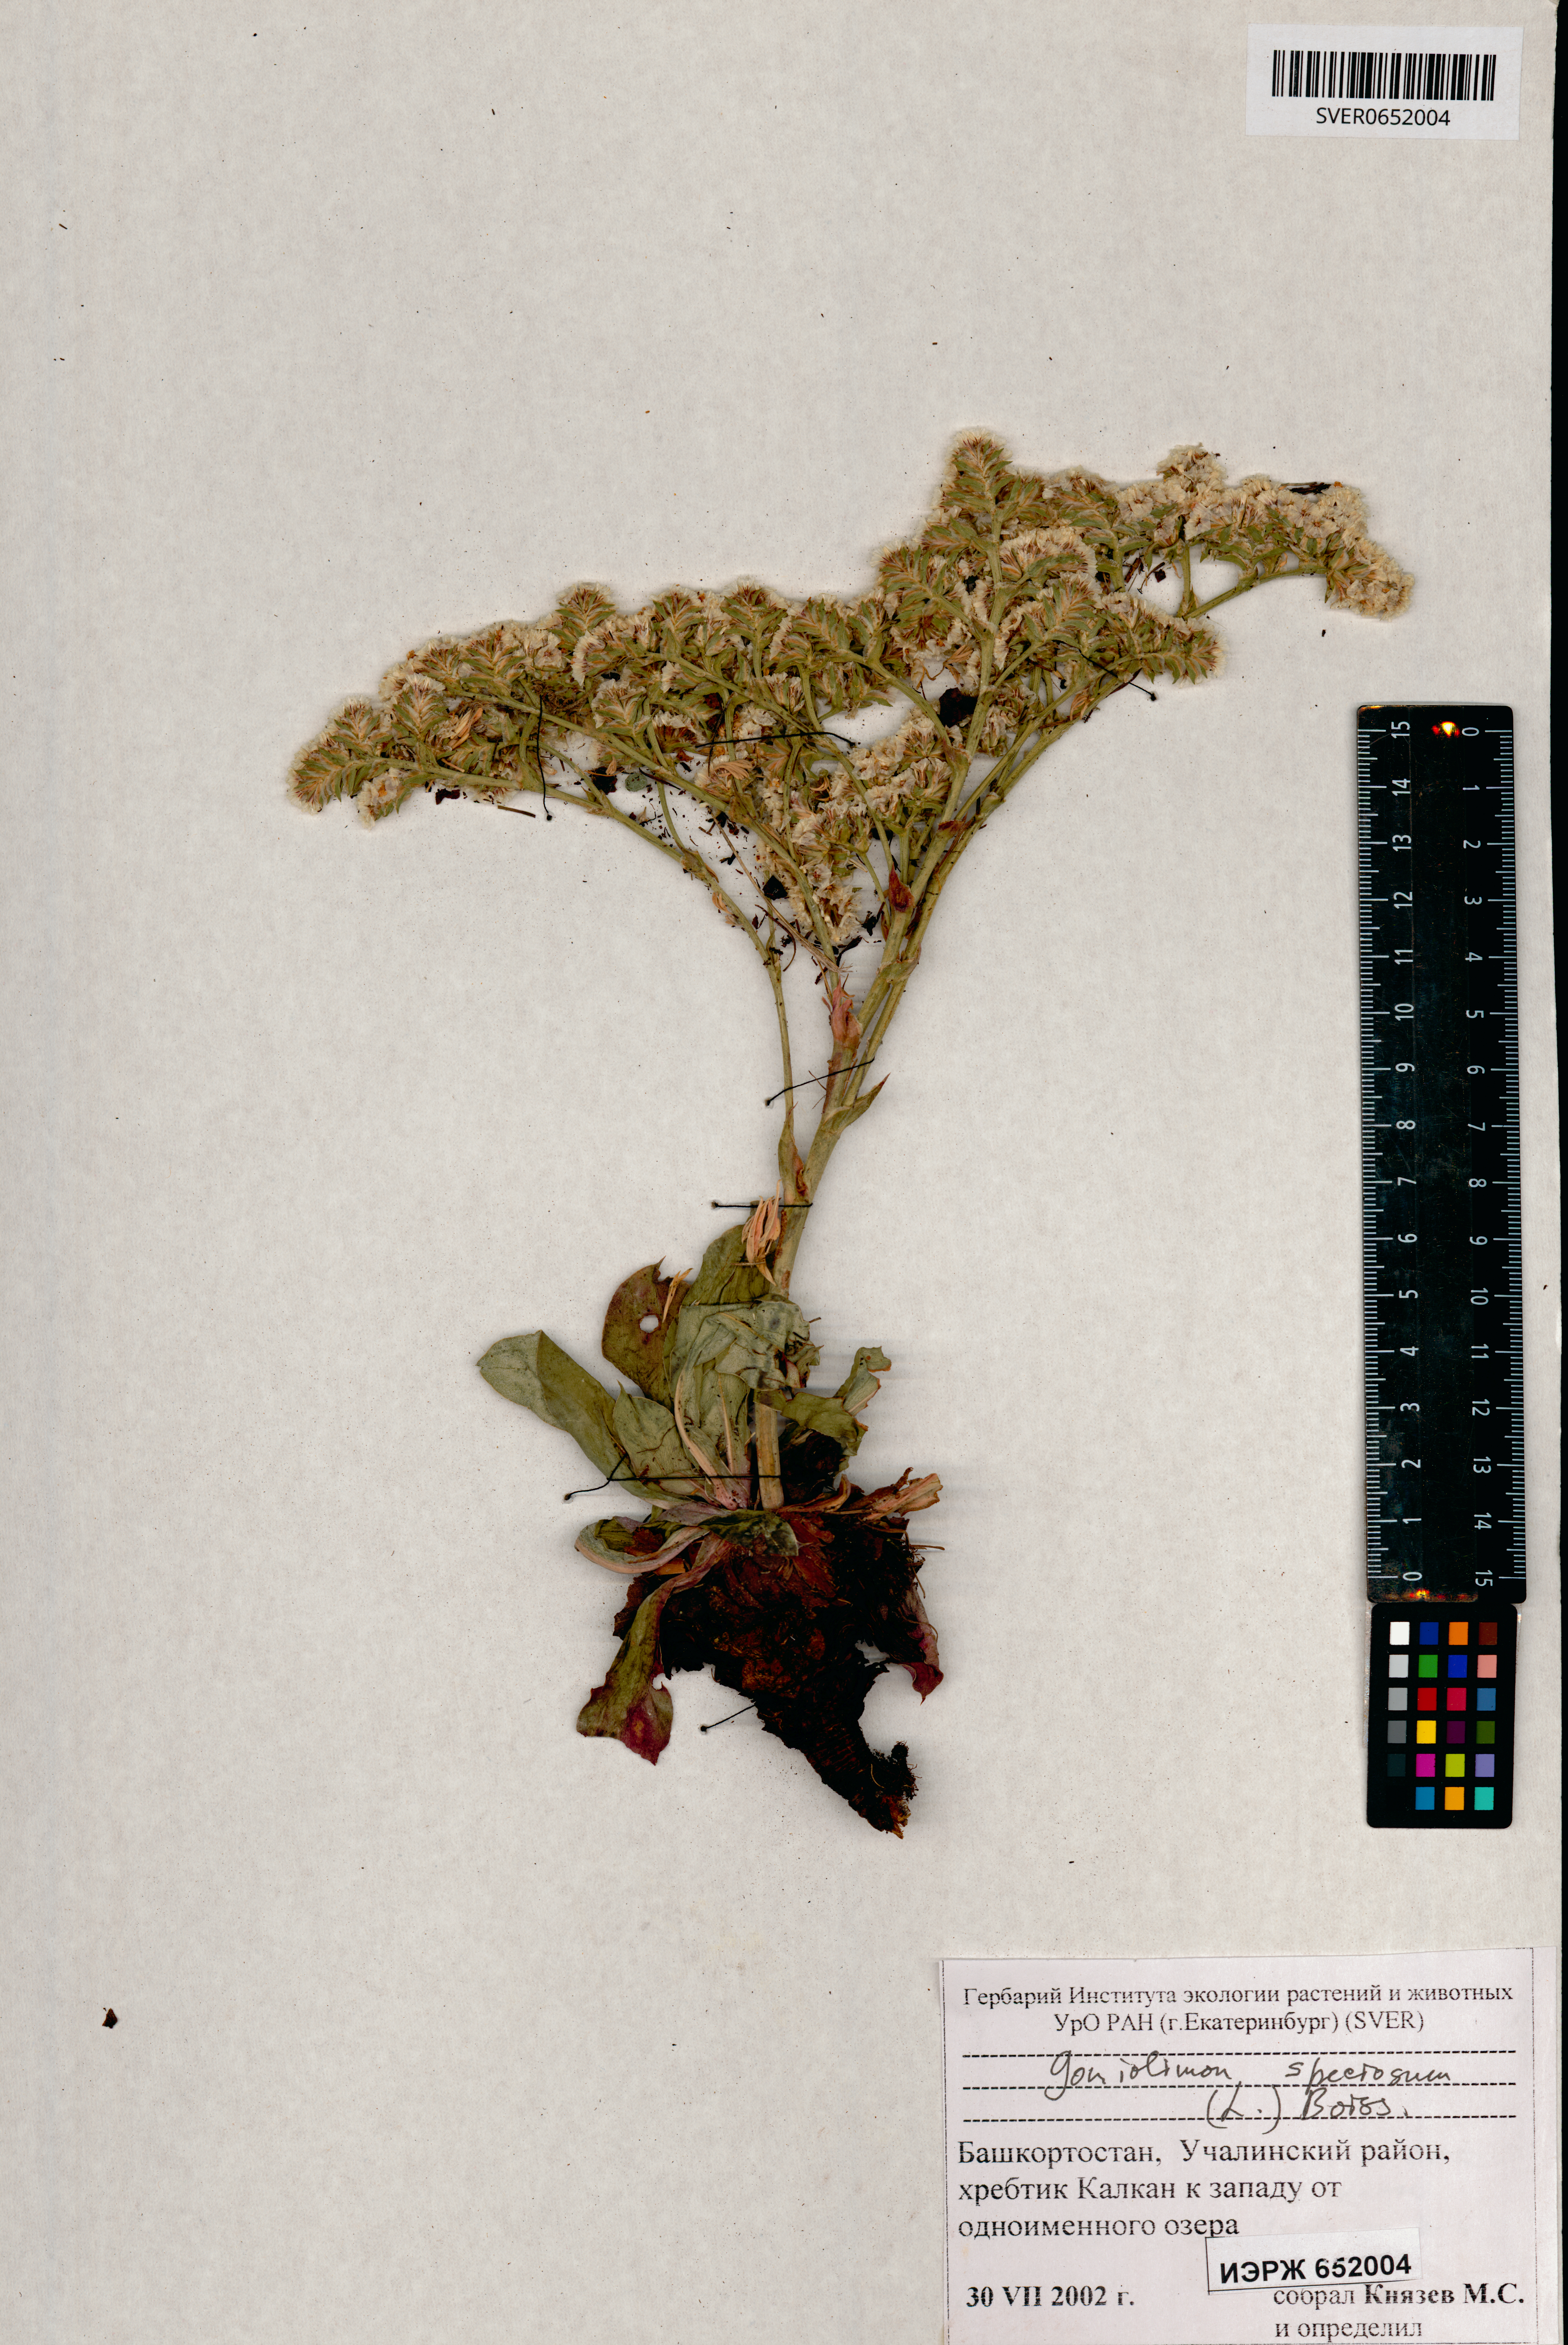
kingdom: Plantae
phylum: Tracheophyta
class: Magnoliopsida
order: Caryophyllales
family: Plumbaginaceae
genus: Goniolimon
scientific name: Goniolimon speciosum
